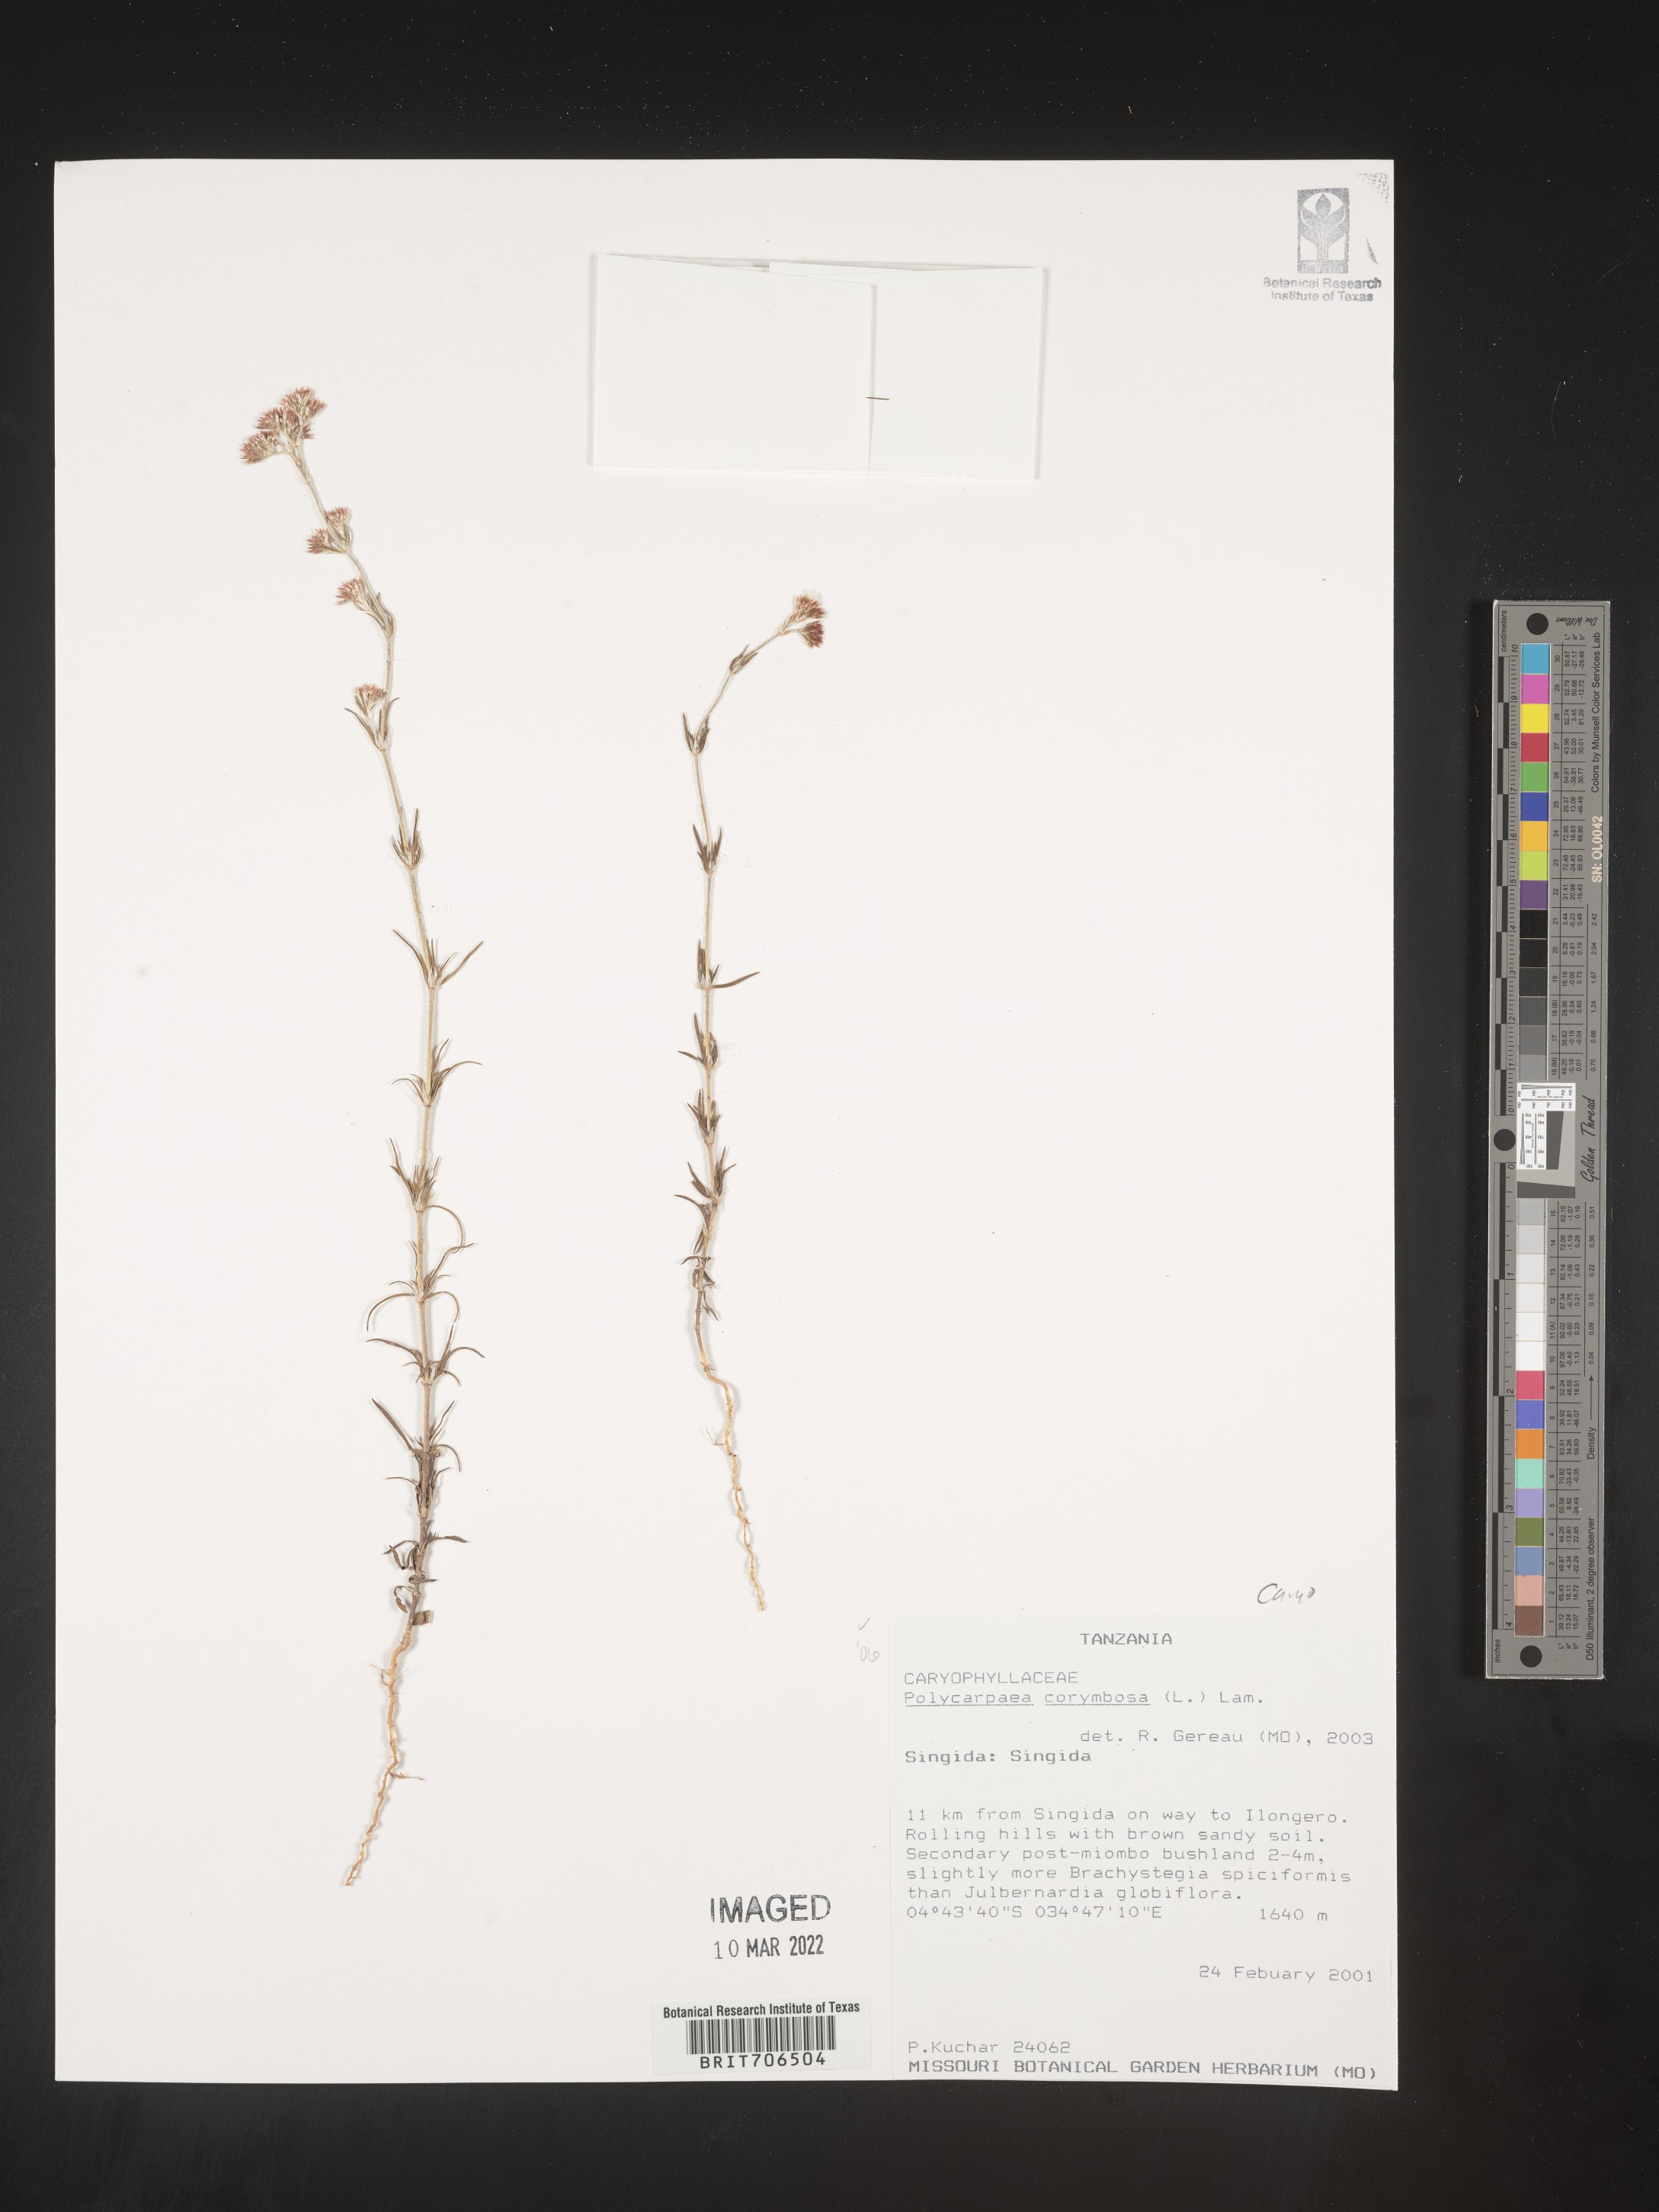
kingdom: Plantae
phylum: Tracheophyta
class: Magnoliopsida
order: Caryophyllales
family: Caryophyllaceae
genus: Polycarpaea
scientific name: Polycarpaea
